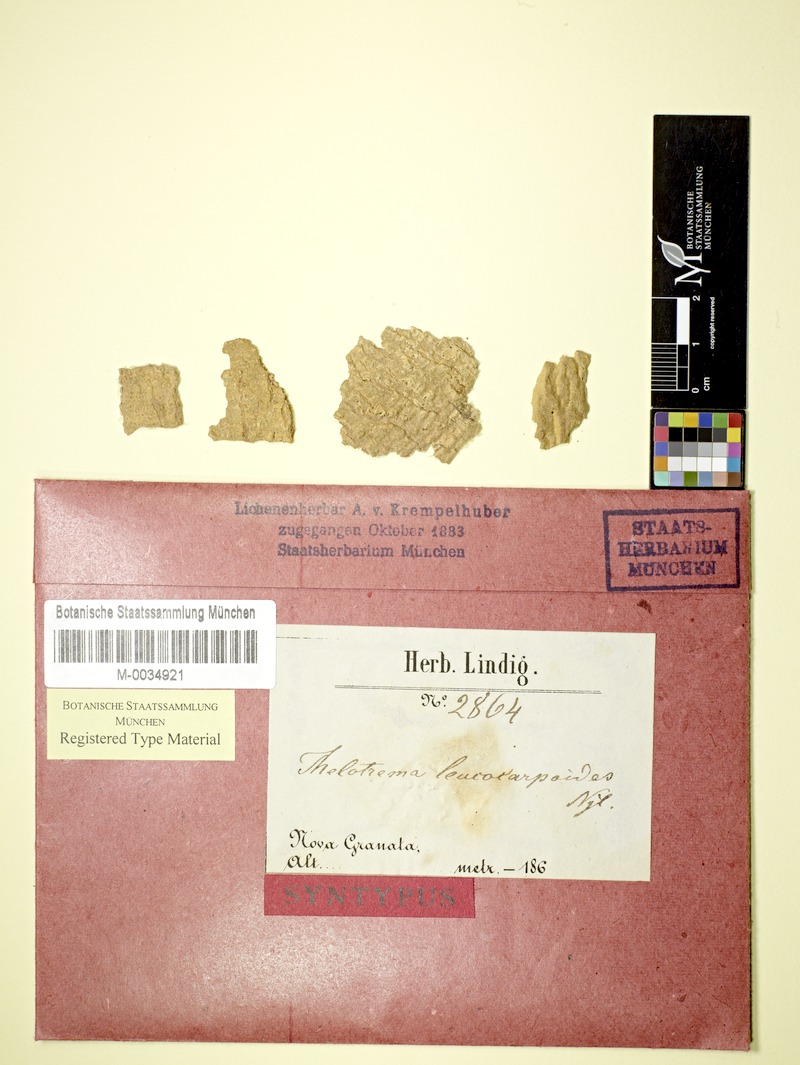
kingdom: Fungi
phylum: Ascomycota
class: Lecanoromycetes
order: Ostropales
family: Graphidaceae
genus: Ocellularia
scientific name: Ocellularia leucocarpoides
